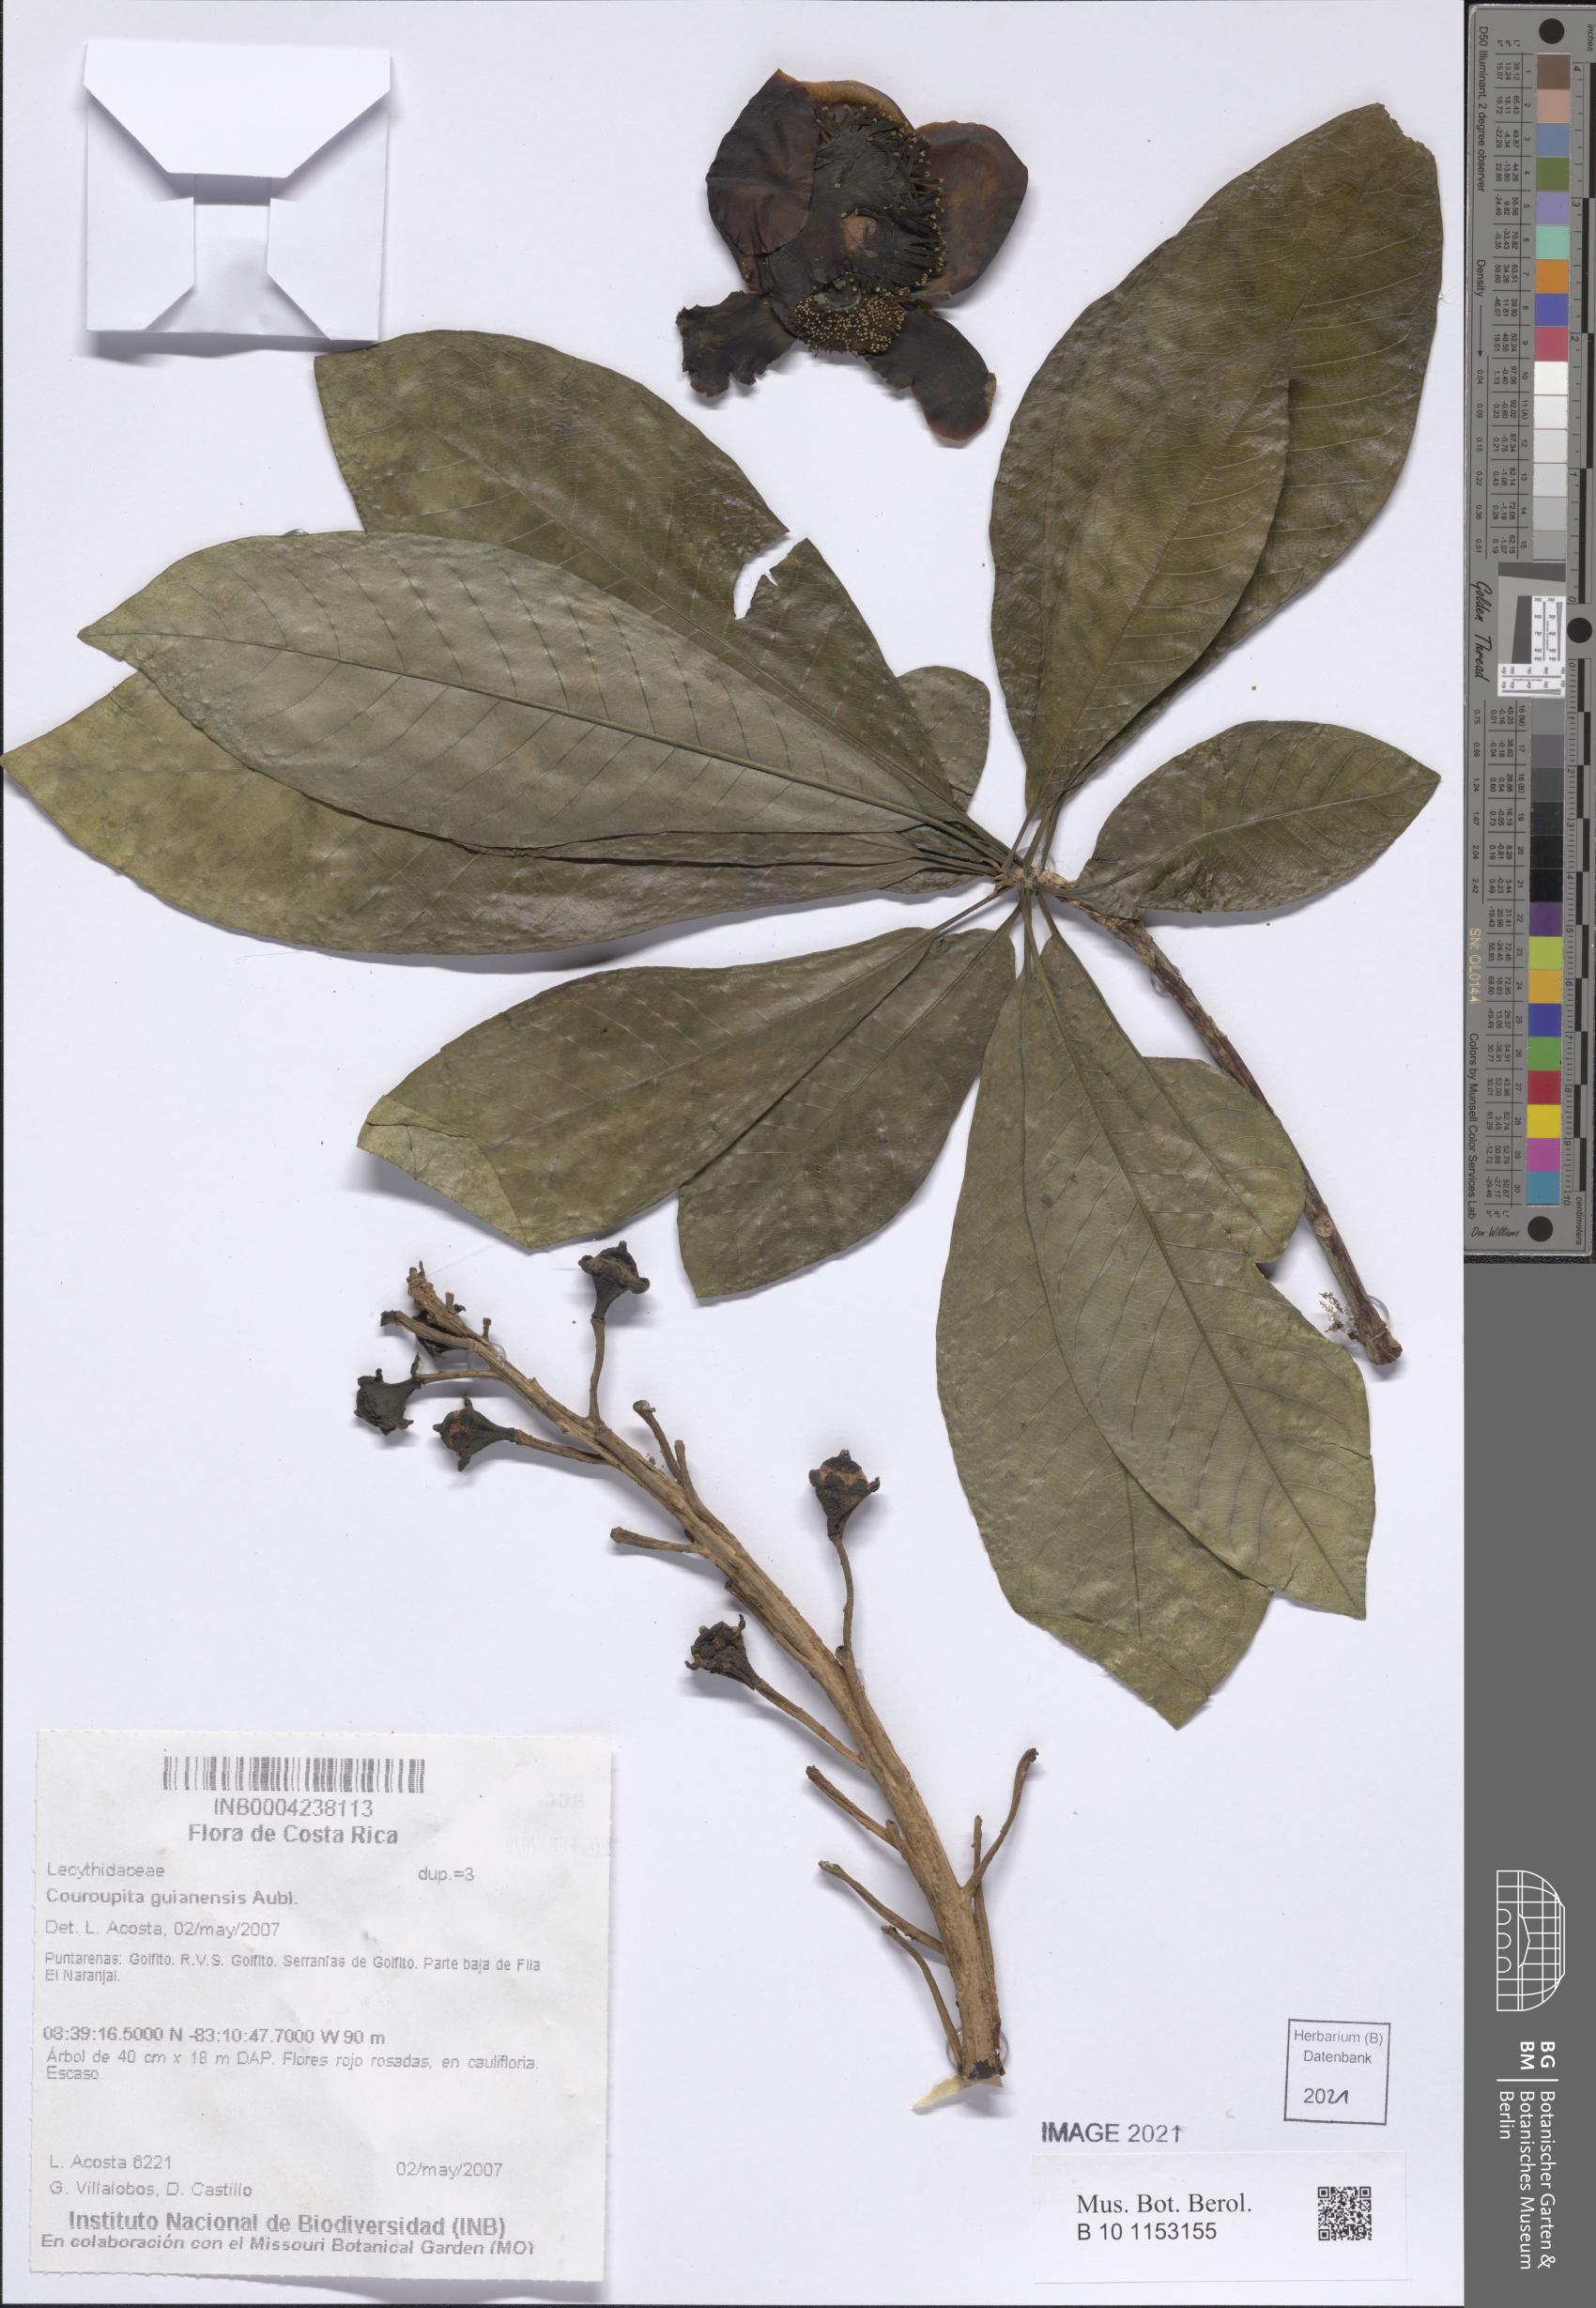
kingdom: Plantae
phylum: Tracheophyta
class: Magnoliopsida
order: Ericales
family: Lecythidaceae
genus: Couroupita
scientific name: Couroupita guianensis
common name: Cannonball tree
